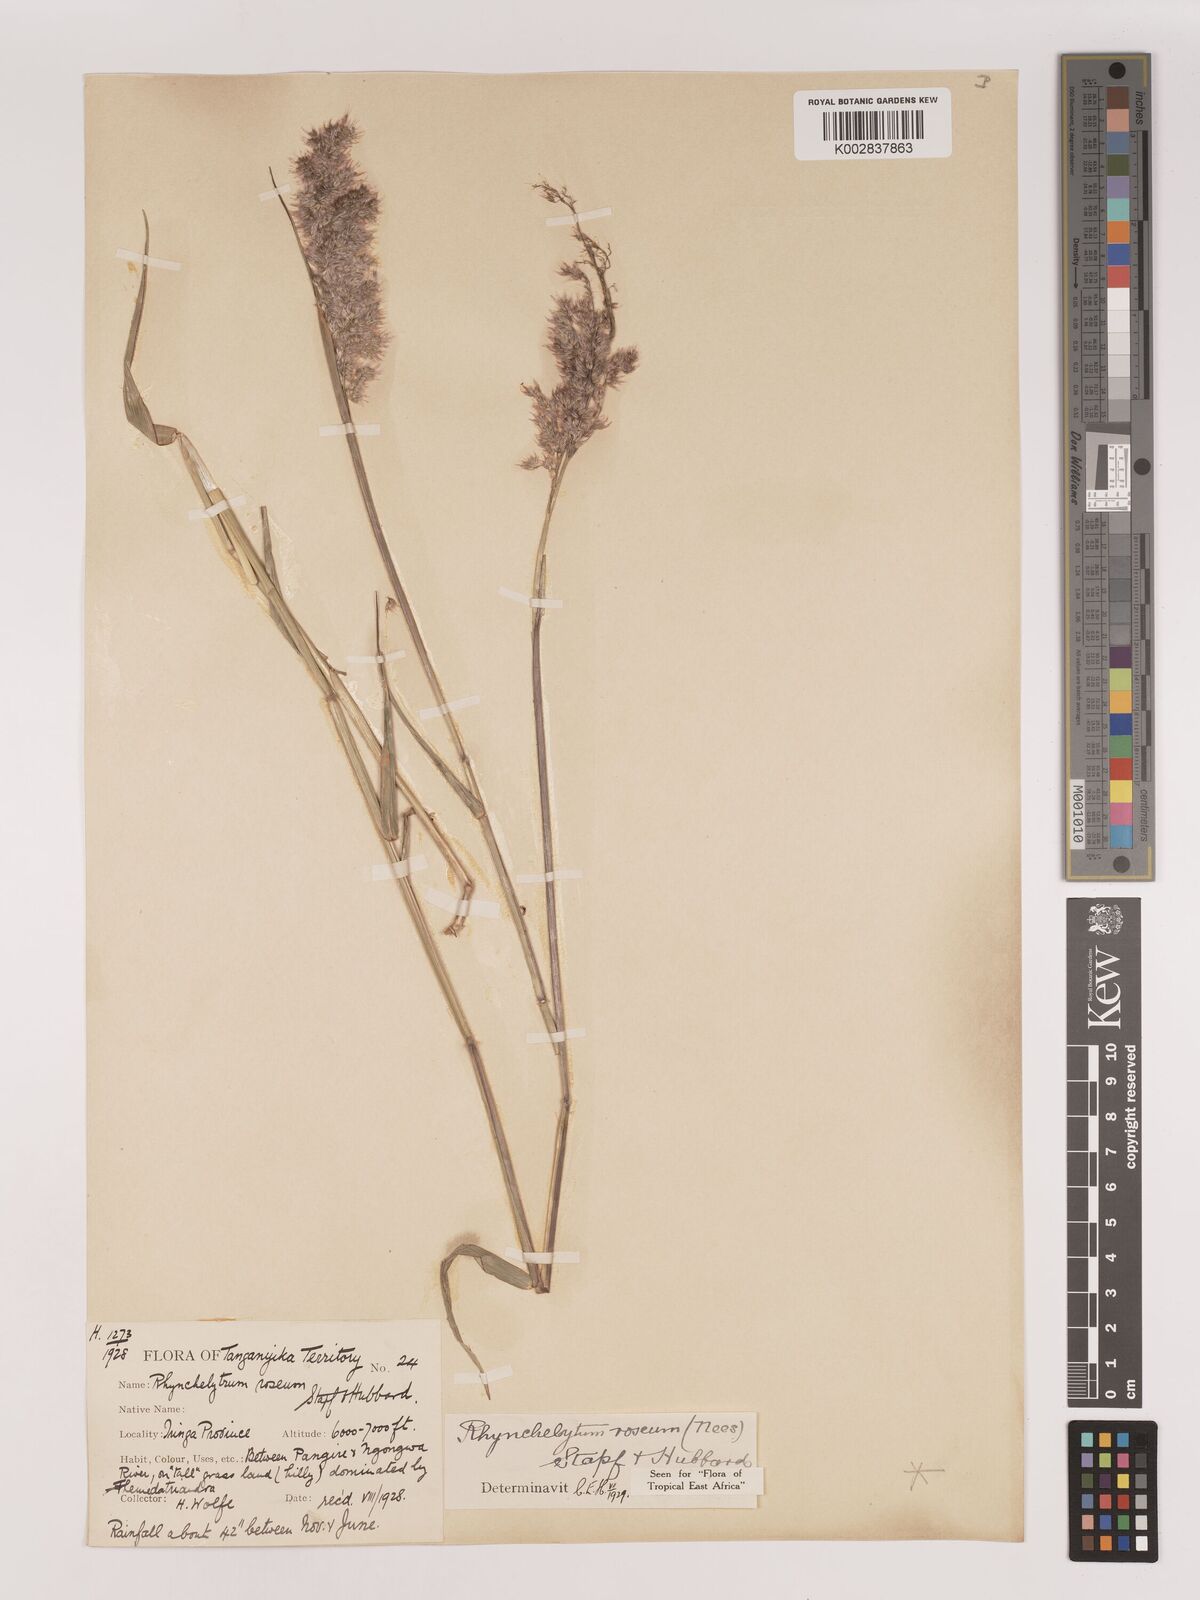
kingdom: Plantae
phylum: Tracheophyta
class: Liliopsida
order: Poales
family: Poaceae
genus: Melinis
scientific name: Melinis repens
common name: Rose natal grass
